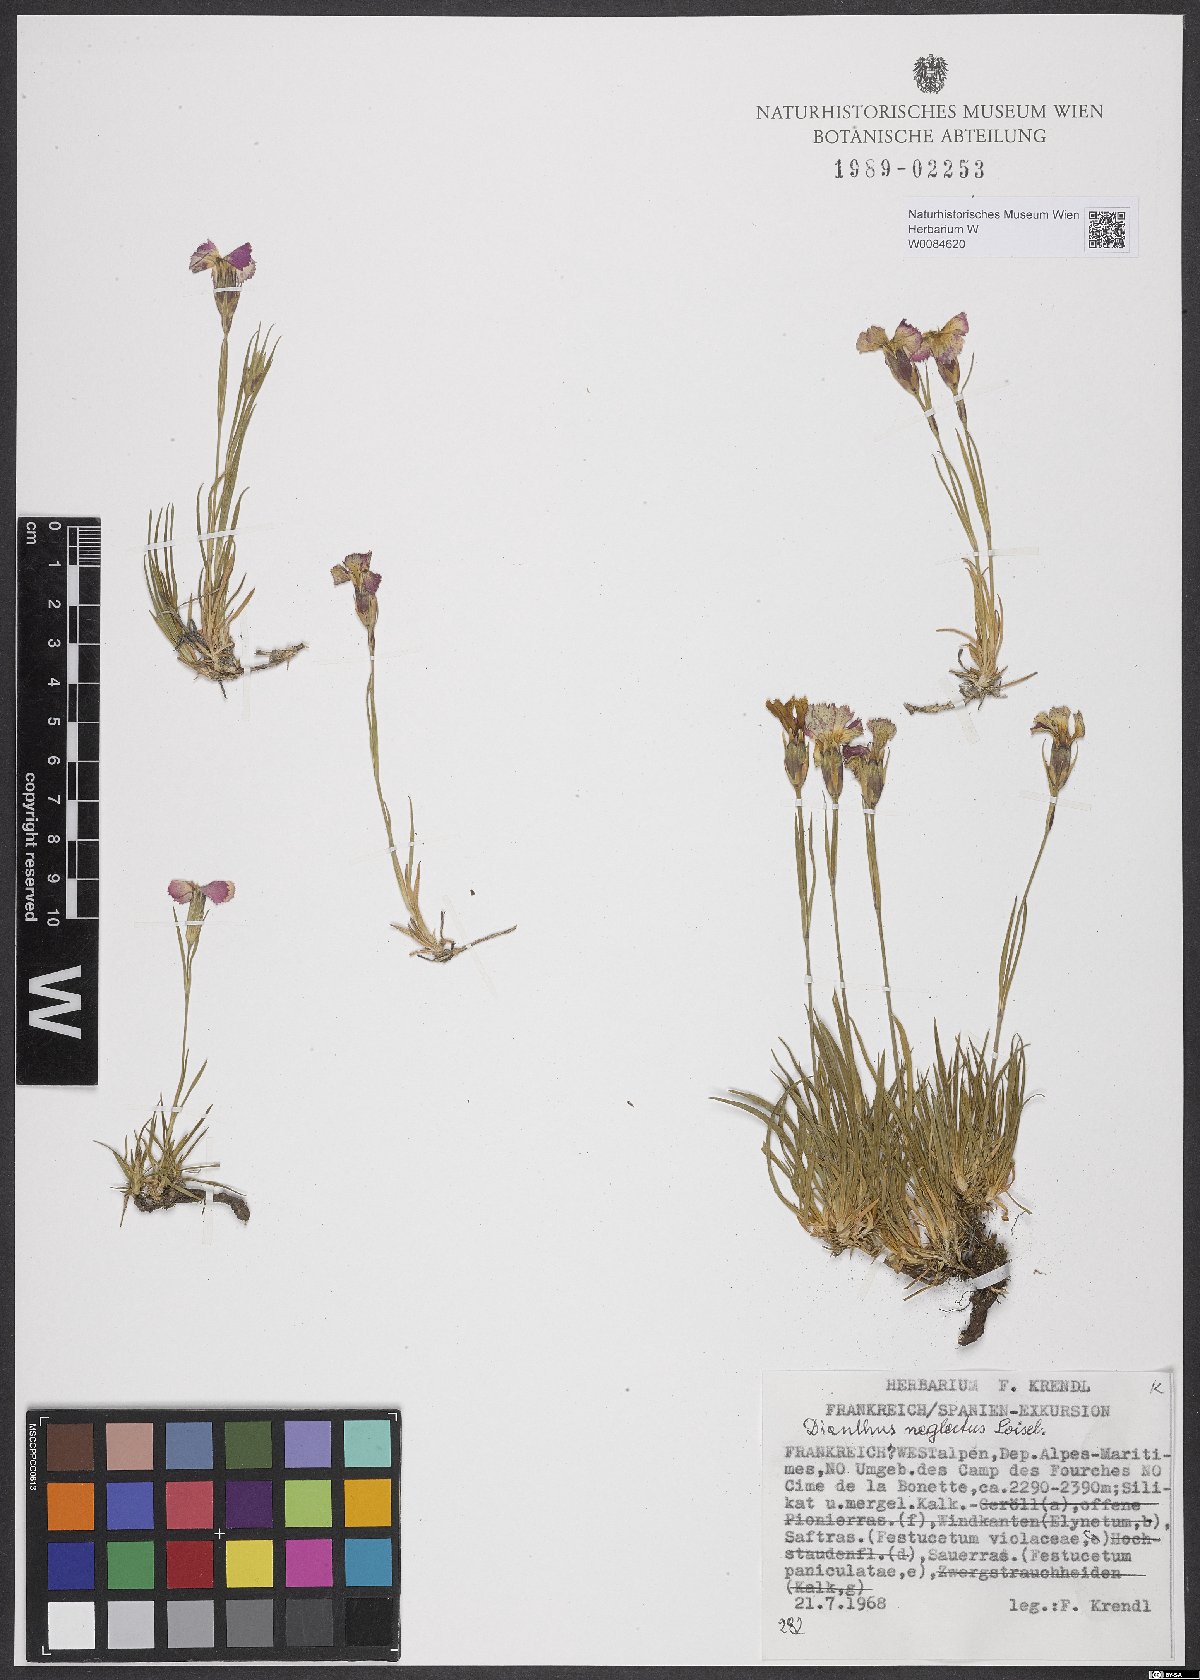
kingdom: Plantae
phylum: Tracheophyta
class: Magnoliopsida
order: Caryophyllales
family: Caryophyllaceae
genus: Dianthus
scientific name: Dianthus seguieri
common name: Ragged pink
